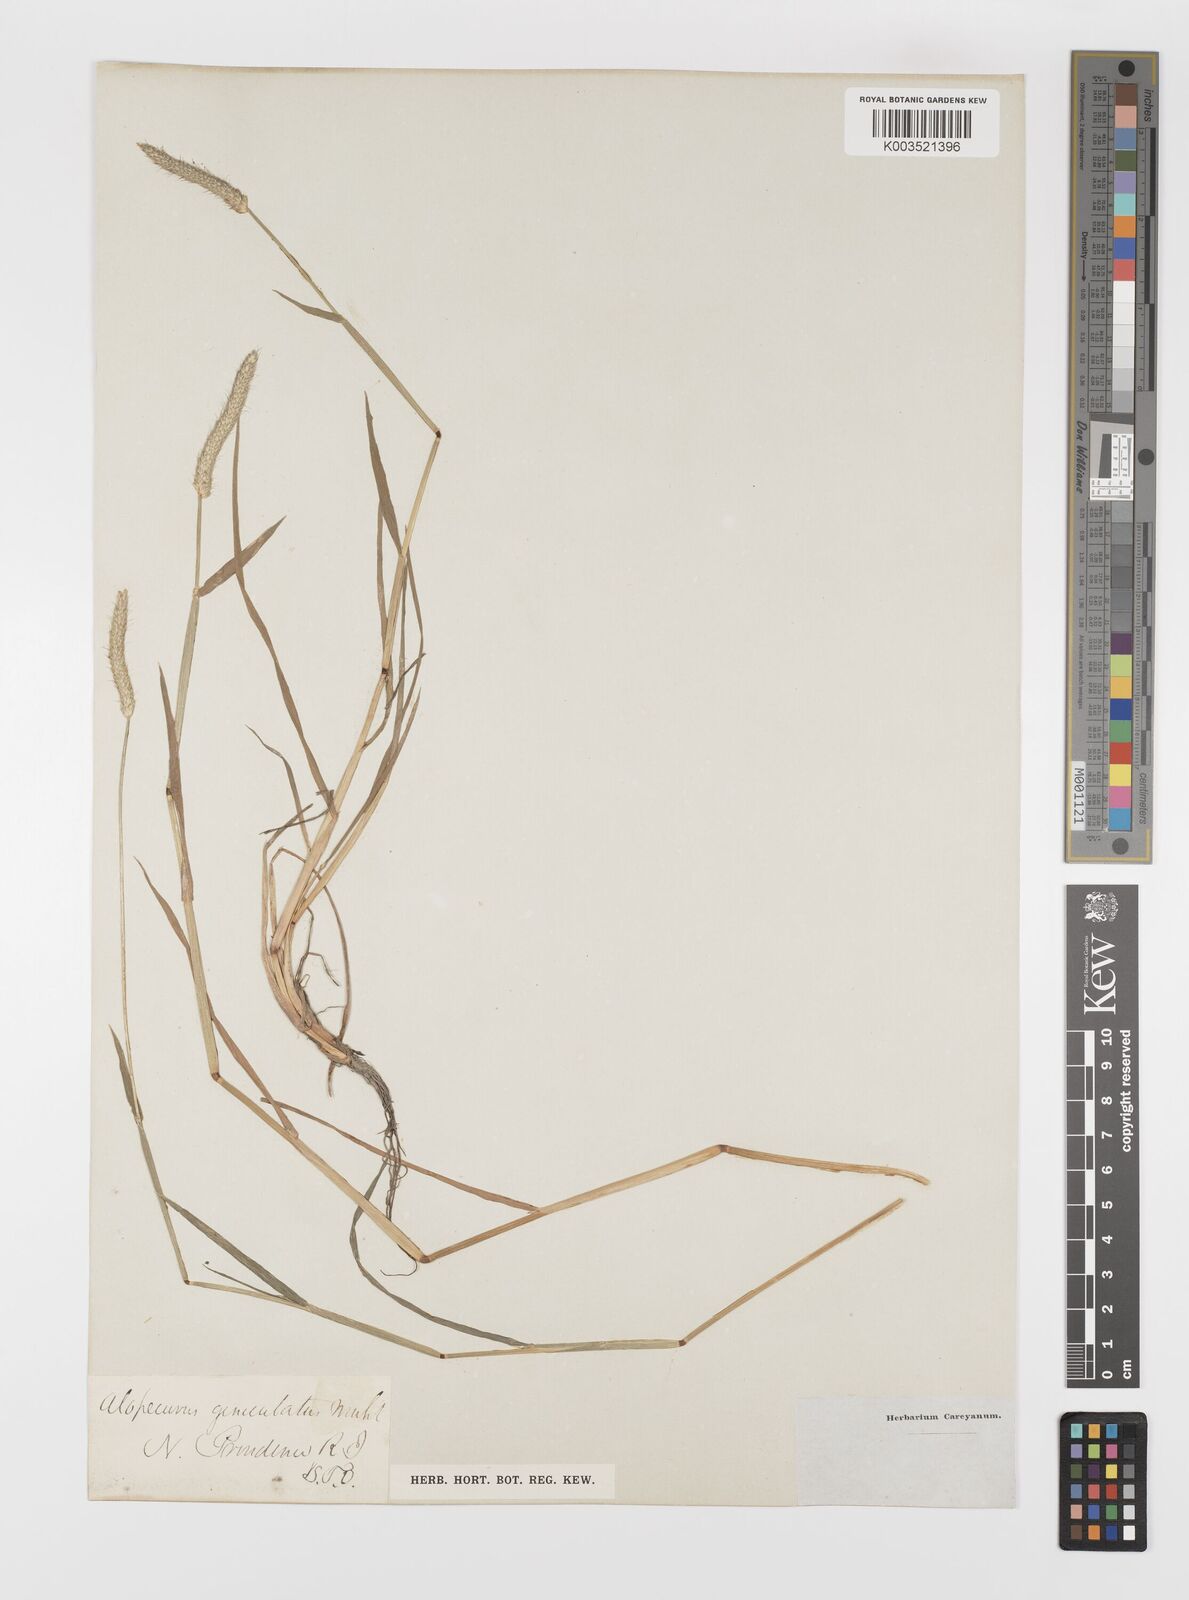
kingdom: Plantae
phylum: Tracheophyta
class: Liliopsida
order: Poales
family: Poaceae
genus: Alopecurus
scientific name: Alopecurus geniculatus
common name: Water foxtail
